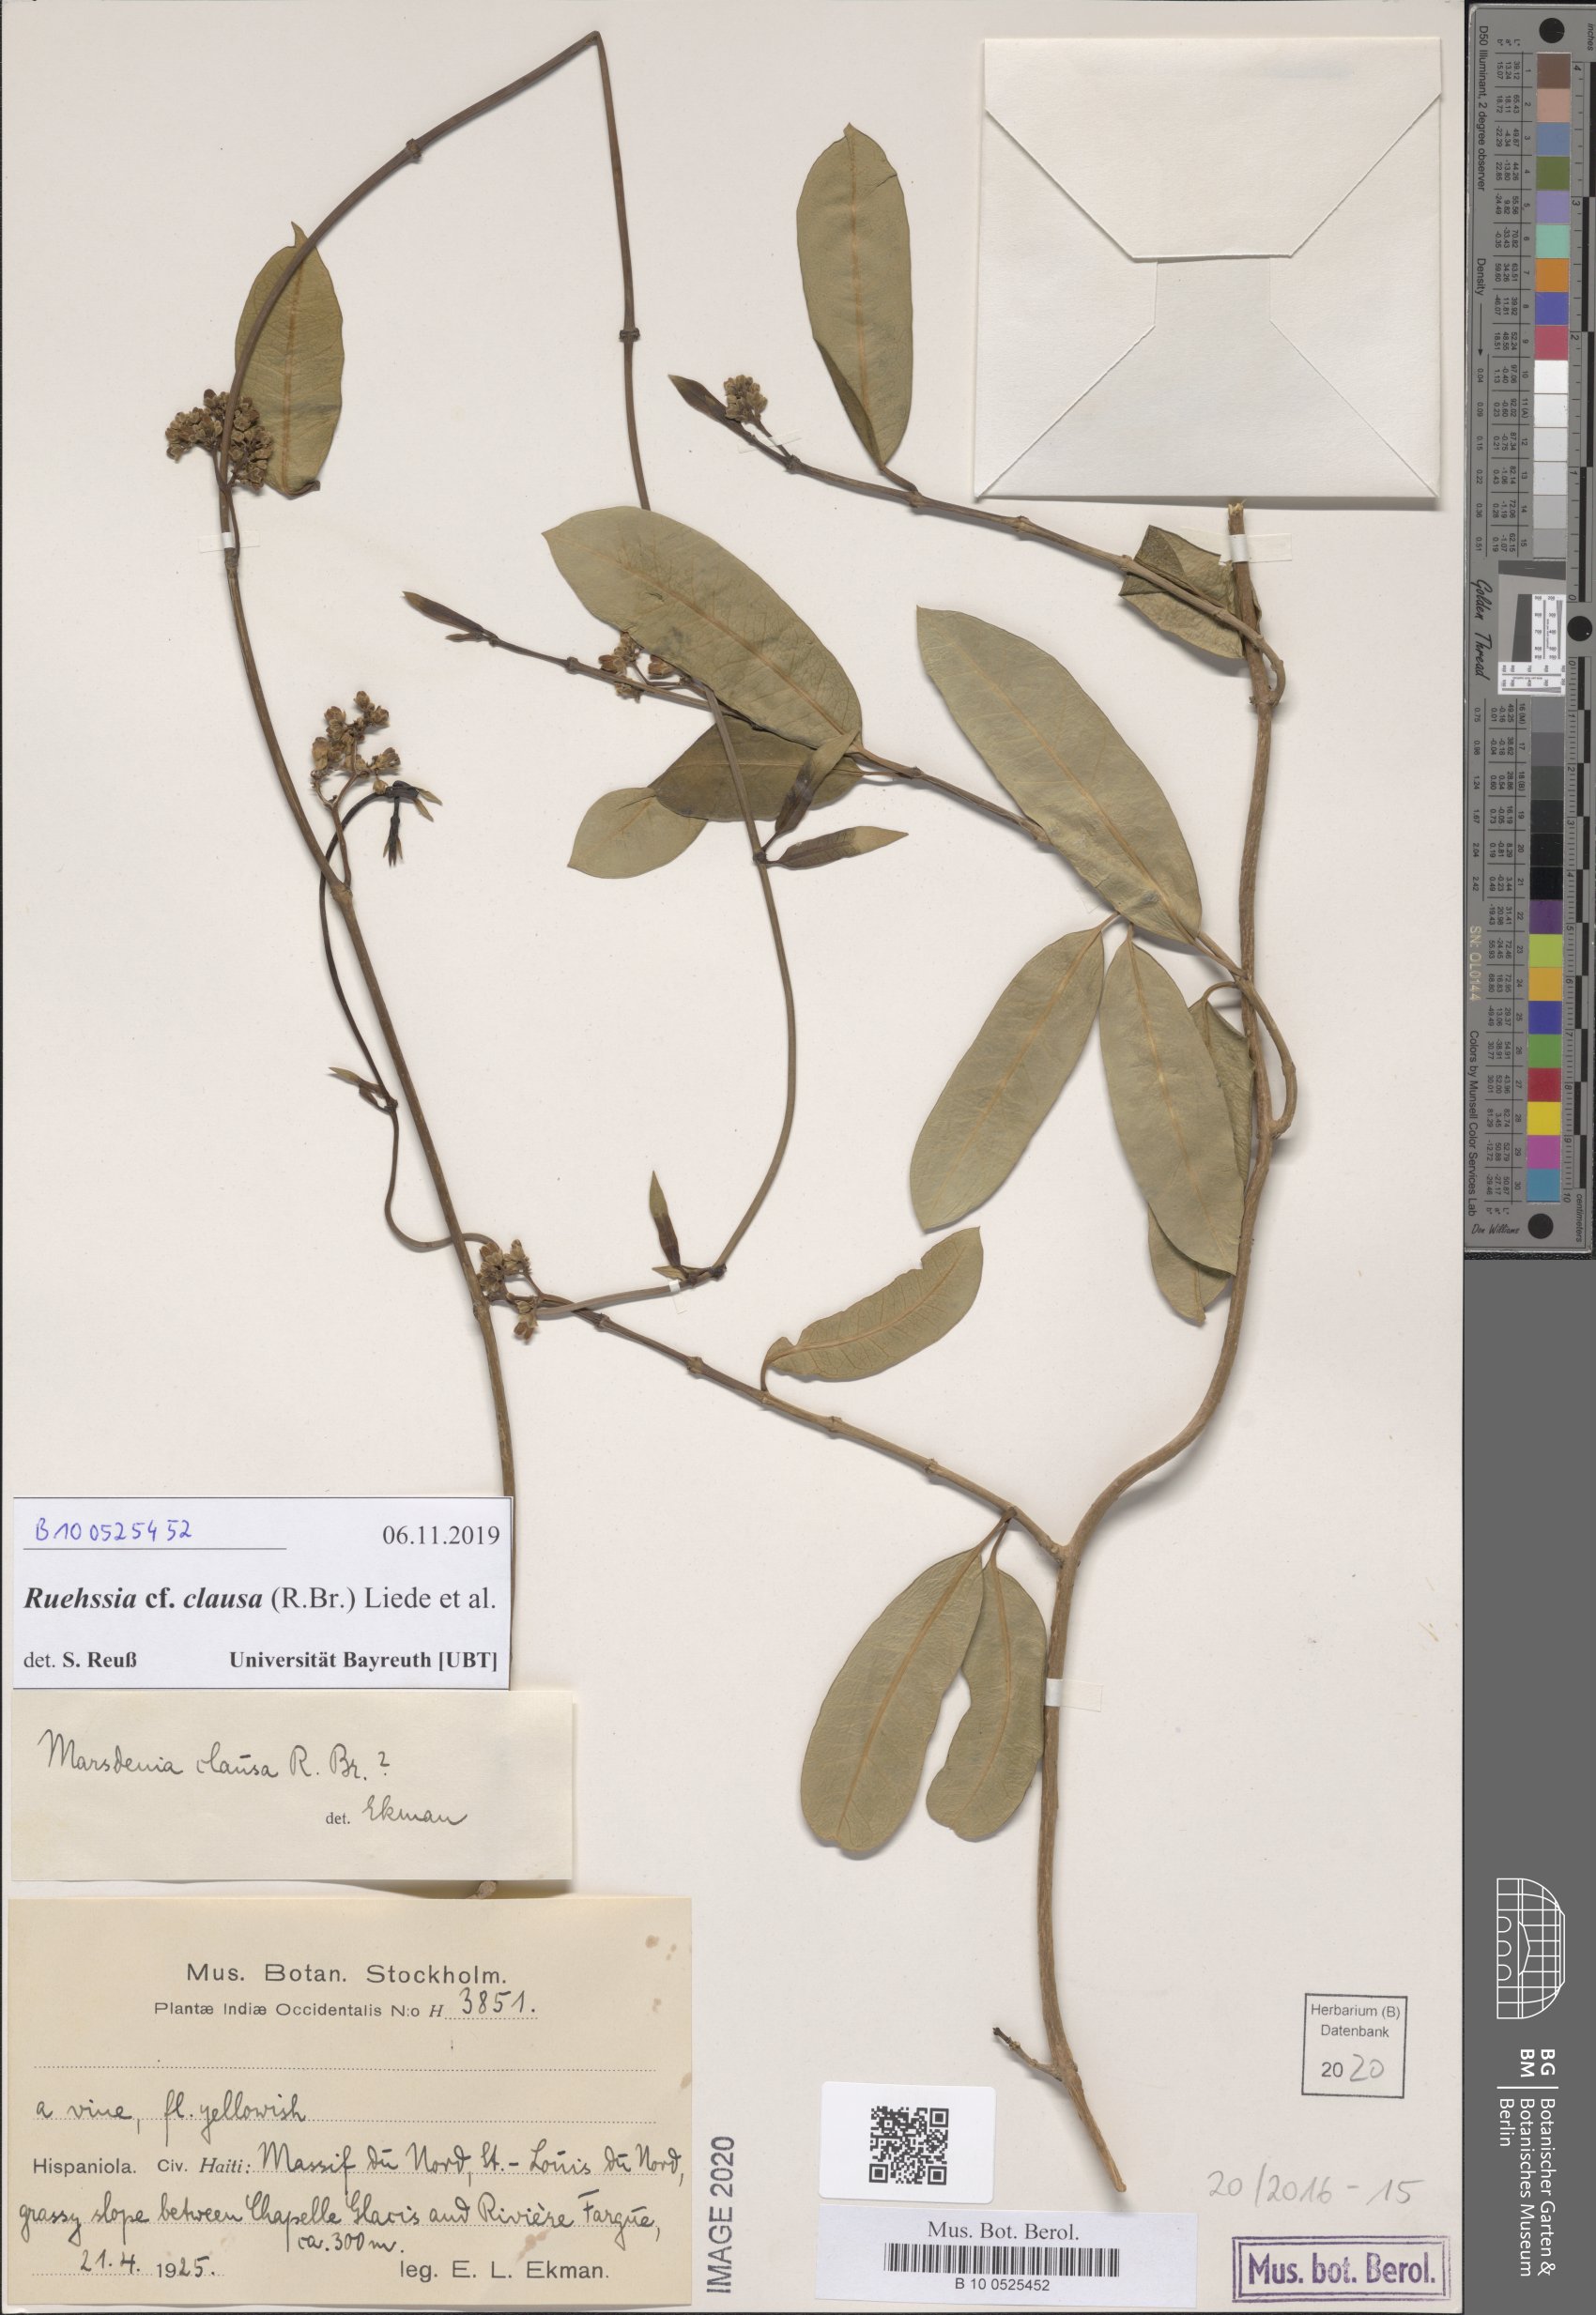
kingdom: Plantae
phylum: Tracheophyta
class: Magnoliopsida
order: Gentianales
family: Apocynaceae
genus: Ruehssia
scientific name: Ruehssia clausa
